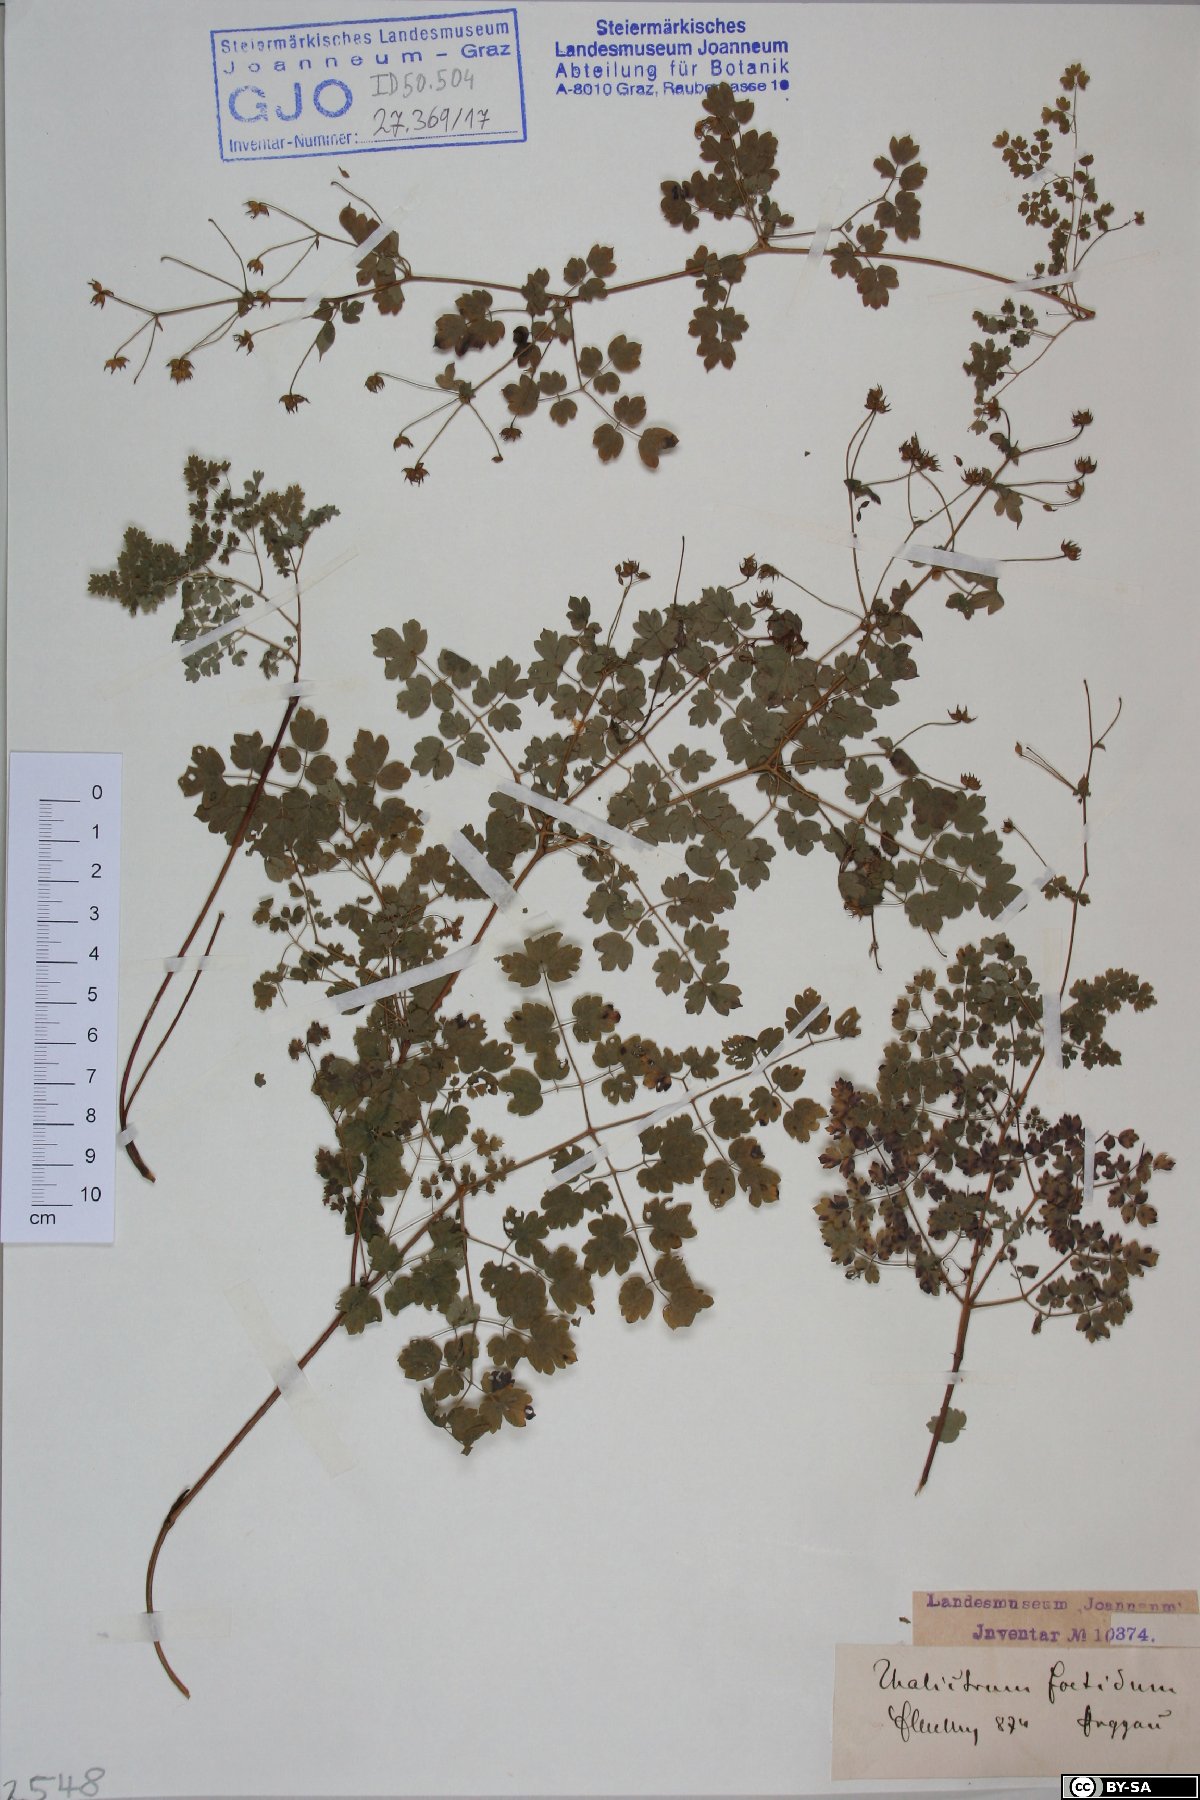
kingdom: Plantae
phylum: Tracheophyta
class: Magnoliopsida
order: Ranunculales
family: Ranunculaceae
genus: Thalictrum
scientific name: Thalictrum foetidum
